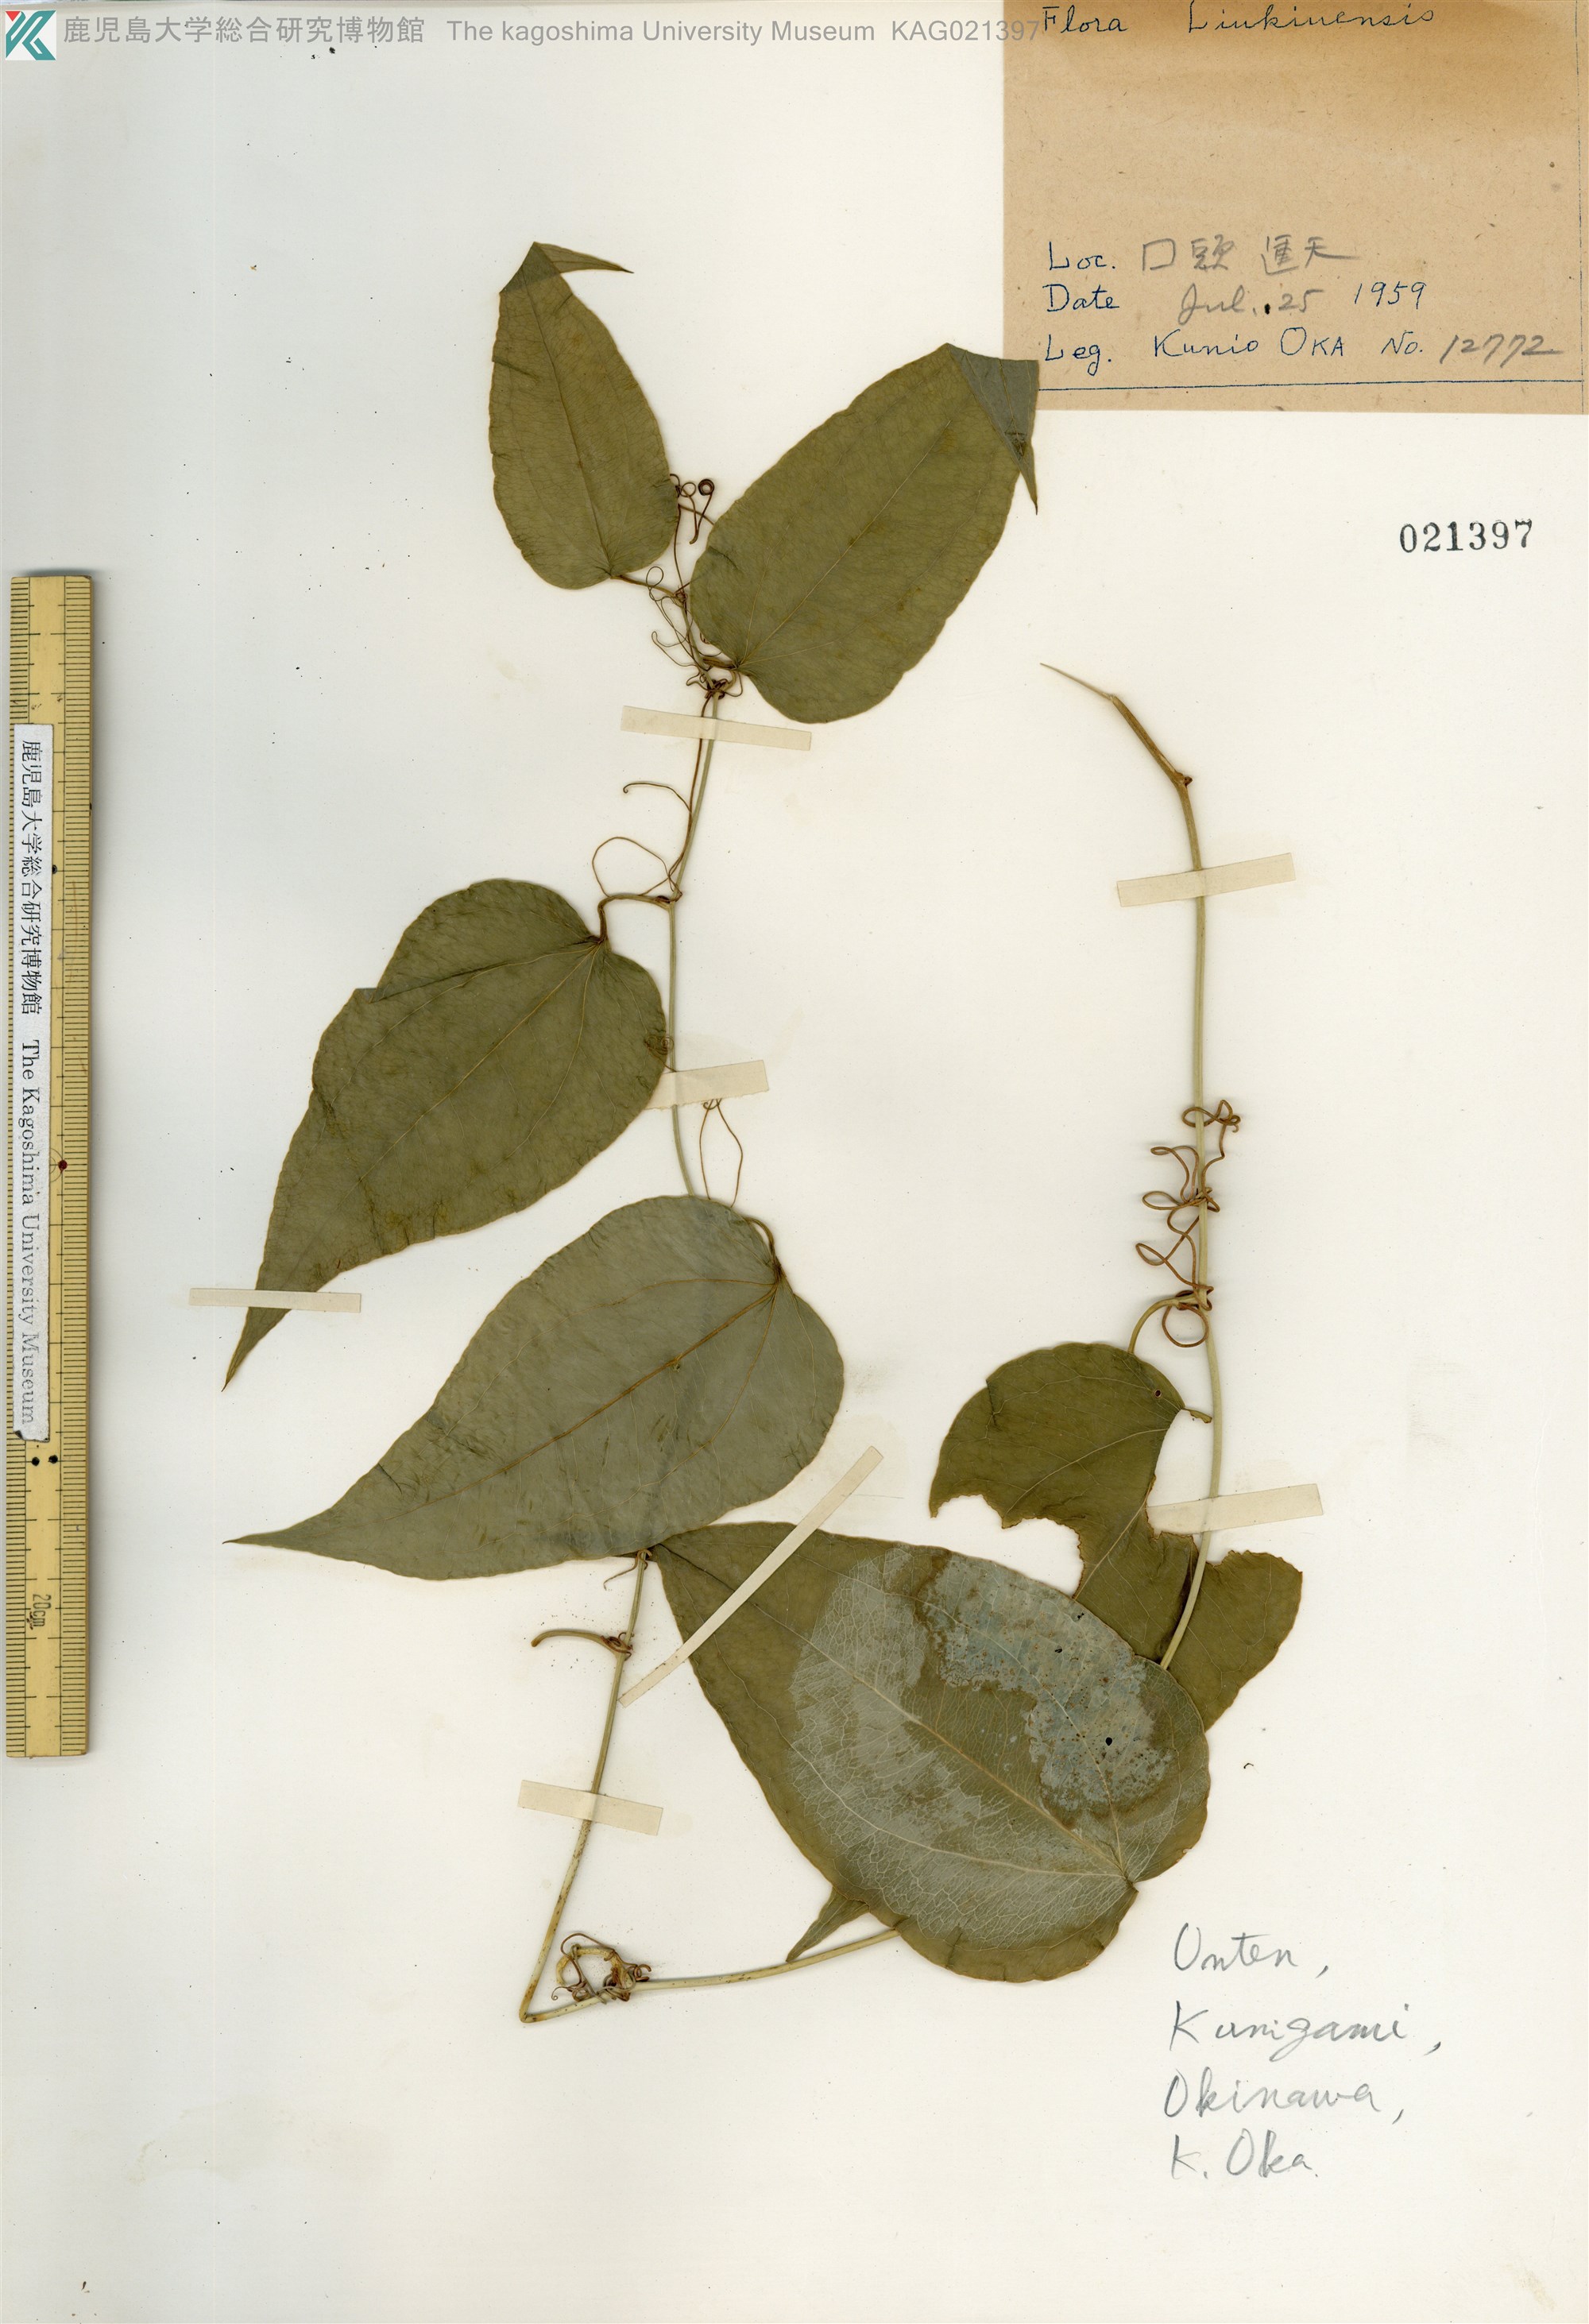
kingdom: Plantae
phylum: Tracheophyta
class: Liliopsida
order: Liliales
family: Smilacaceae
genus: Smilax
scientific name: Smilax insularis
